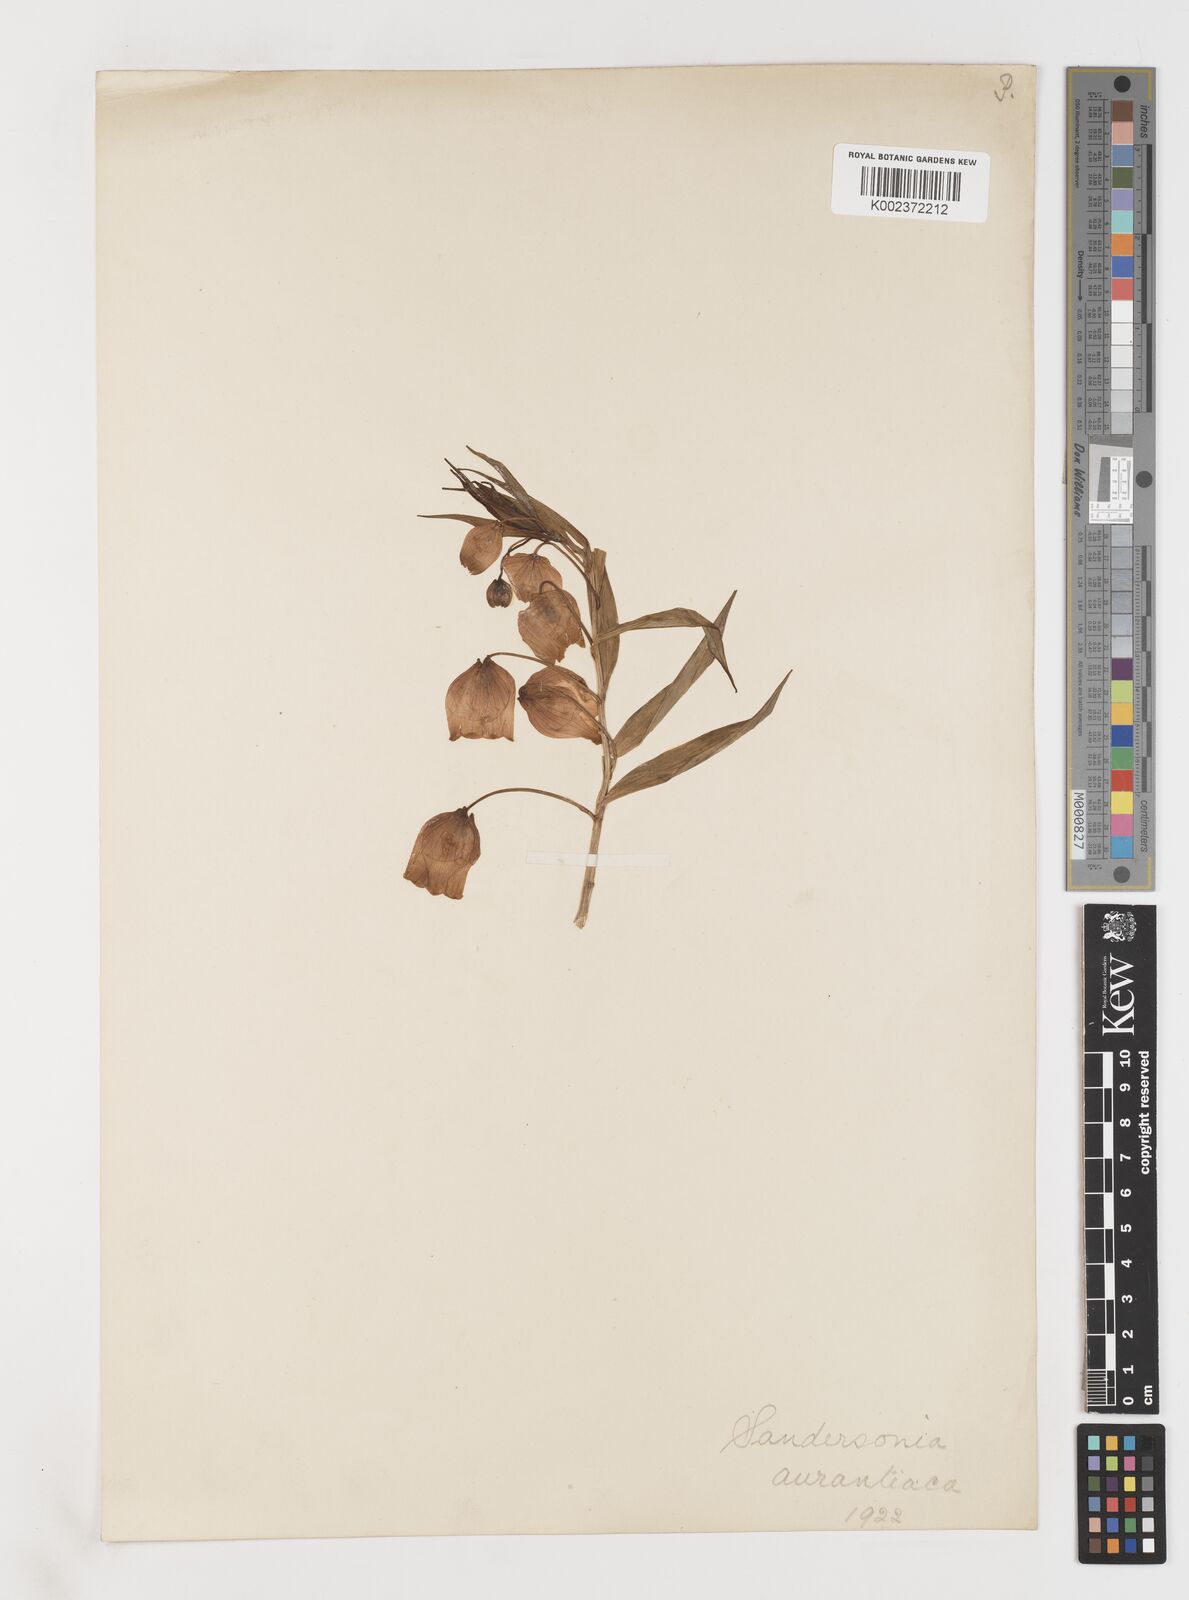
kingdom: Plantae
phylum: Tracheophyta
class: Liliopsida
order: Liliales
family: Colchicaceae
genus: Sandersonia
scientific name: Sandersonia aurantiaca
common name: Chinese-lantern-lily
